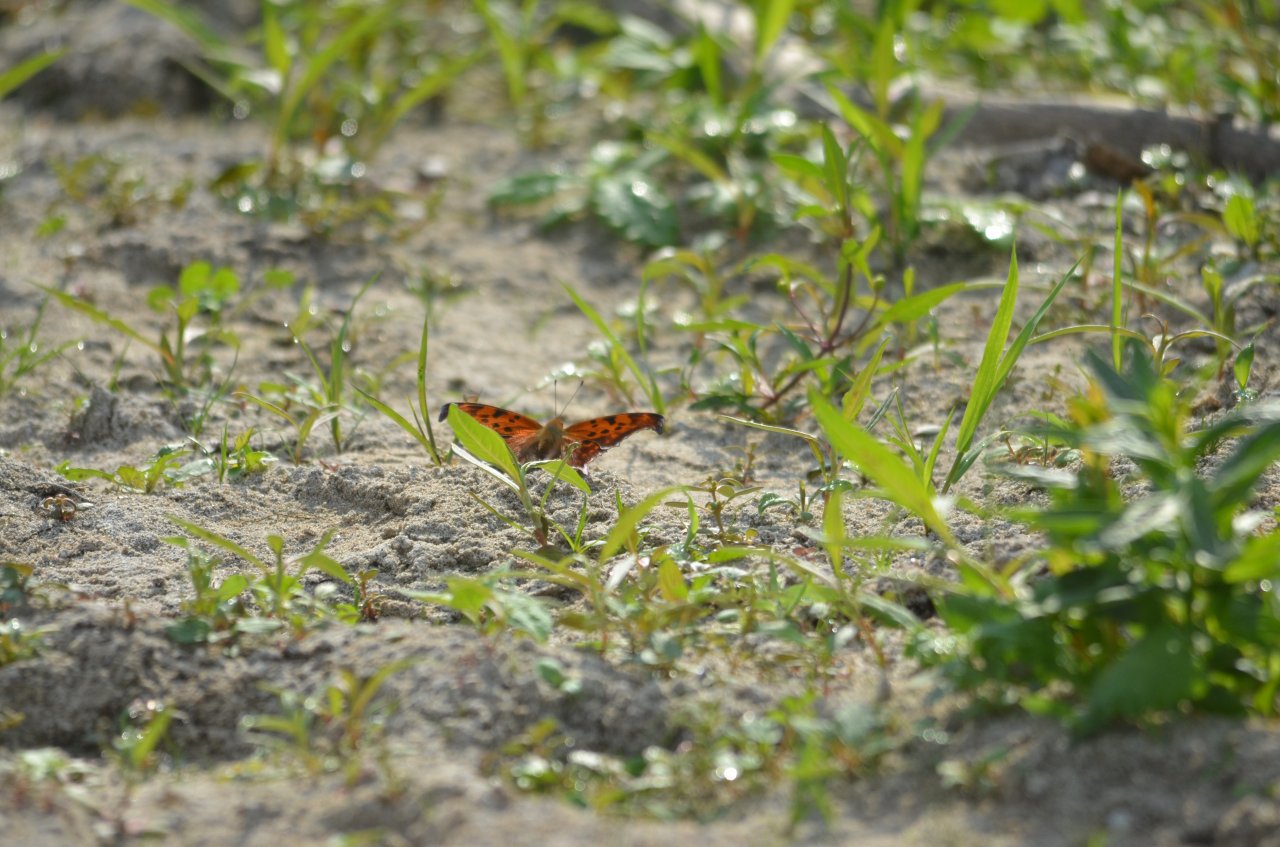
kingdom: Animalia
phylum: Arthropoda
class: Insecta
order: Lepidoptera
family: Nymphalidae
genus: Polygonia
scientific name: Polygonia interrogationis
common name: Question Mark
